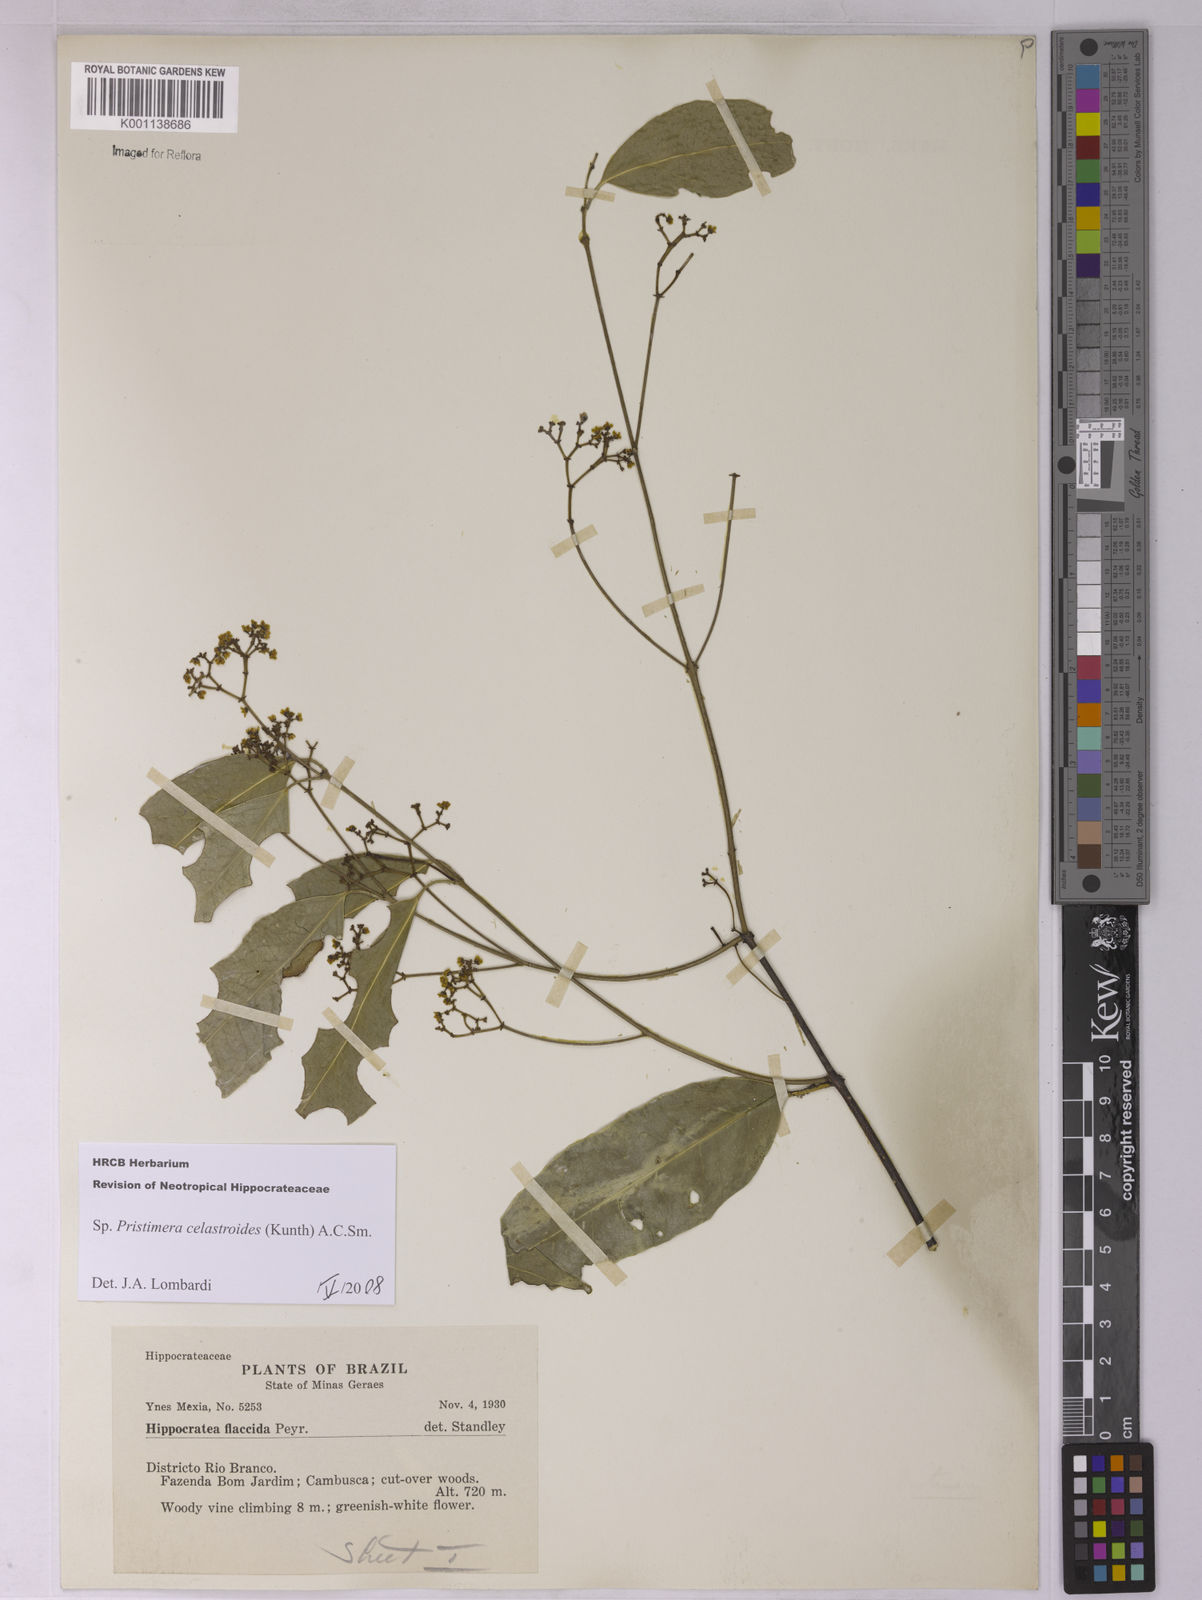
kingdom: Plantae
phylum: Tracheophyta
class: Magnoliopsida
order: Celastrales
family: Celastraceae
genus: Pristimera
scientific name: Pristimera celastroides
